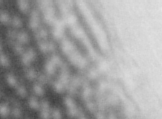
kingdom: Animalia
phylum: Chordata
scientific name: Chordata
